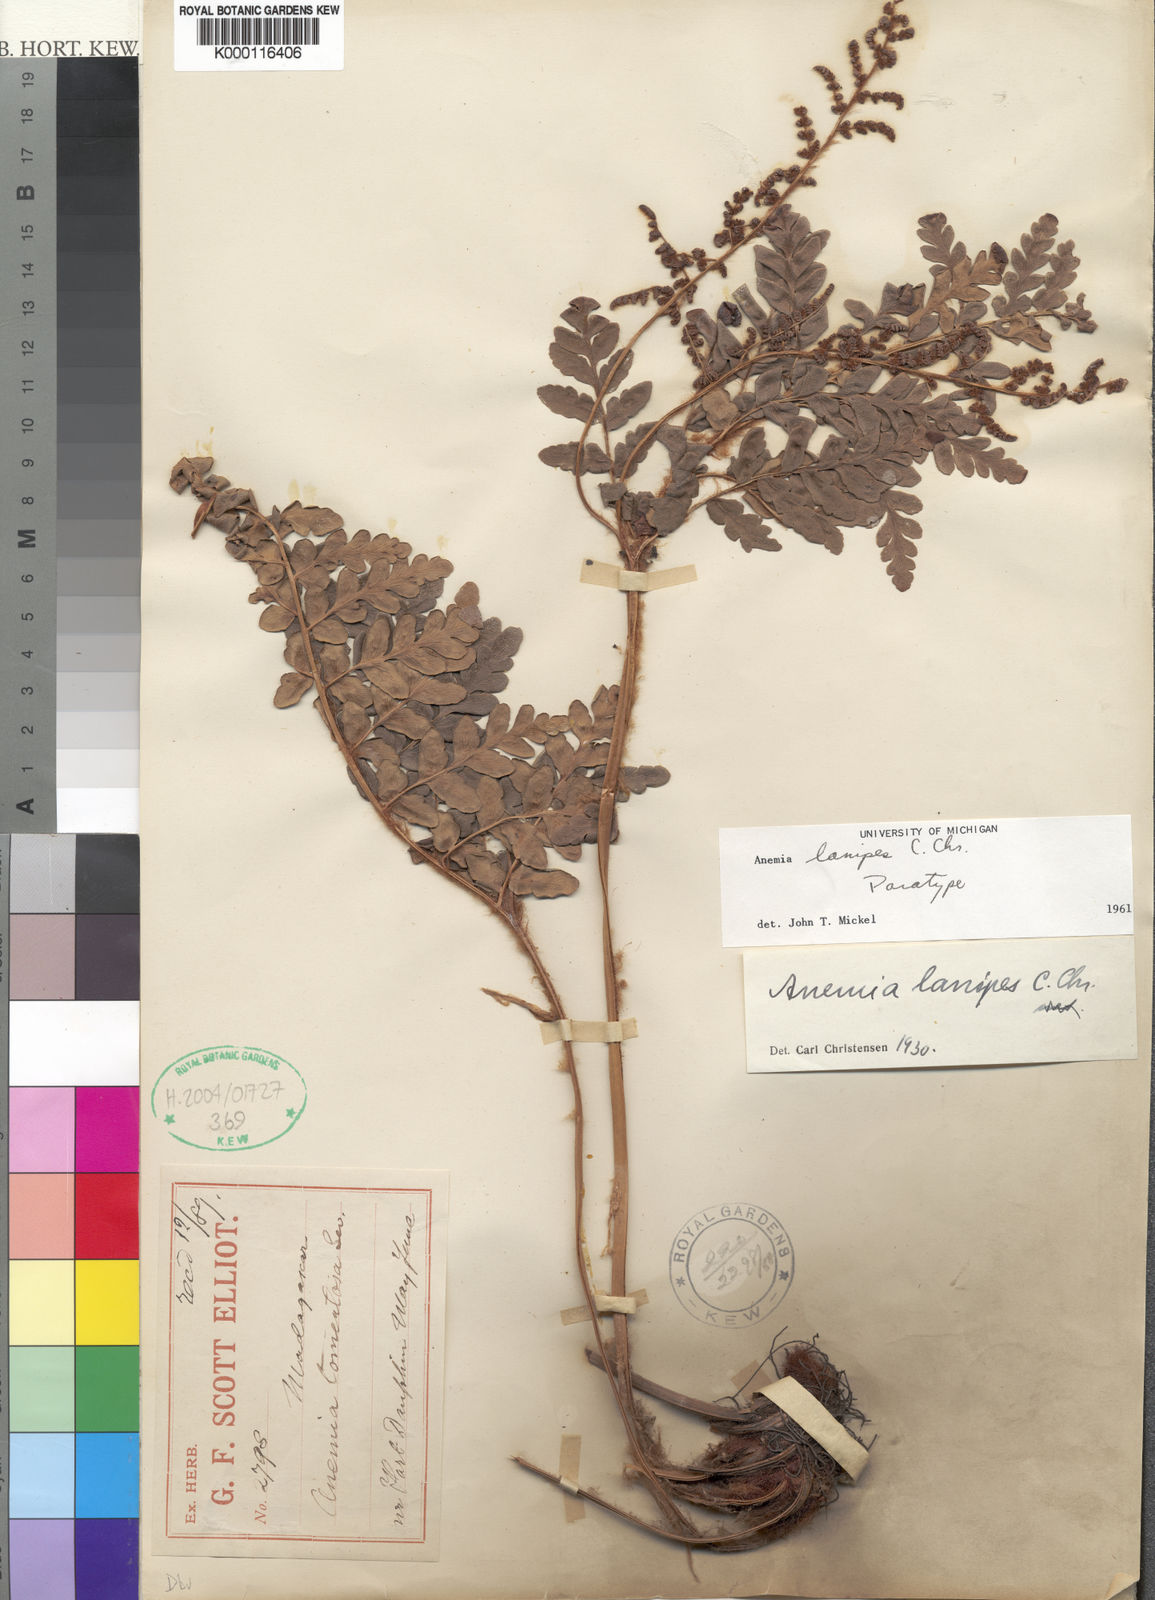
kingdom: Plantae
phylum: Tracheophyta
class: Polypodiopsida
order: Schizaeales
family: Anemiaceae
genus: Anemia
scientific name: Anemia lanipes
